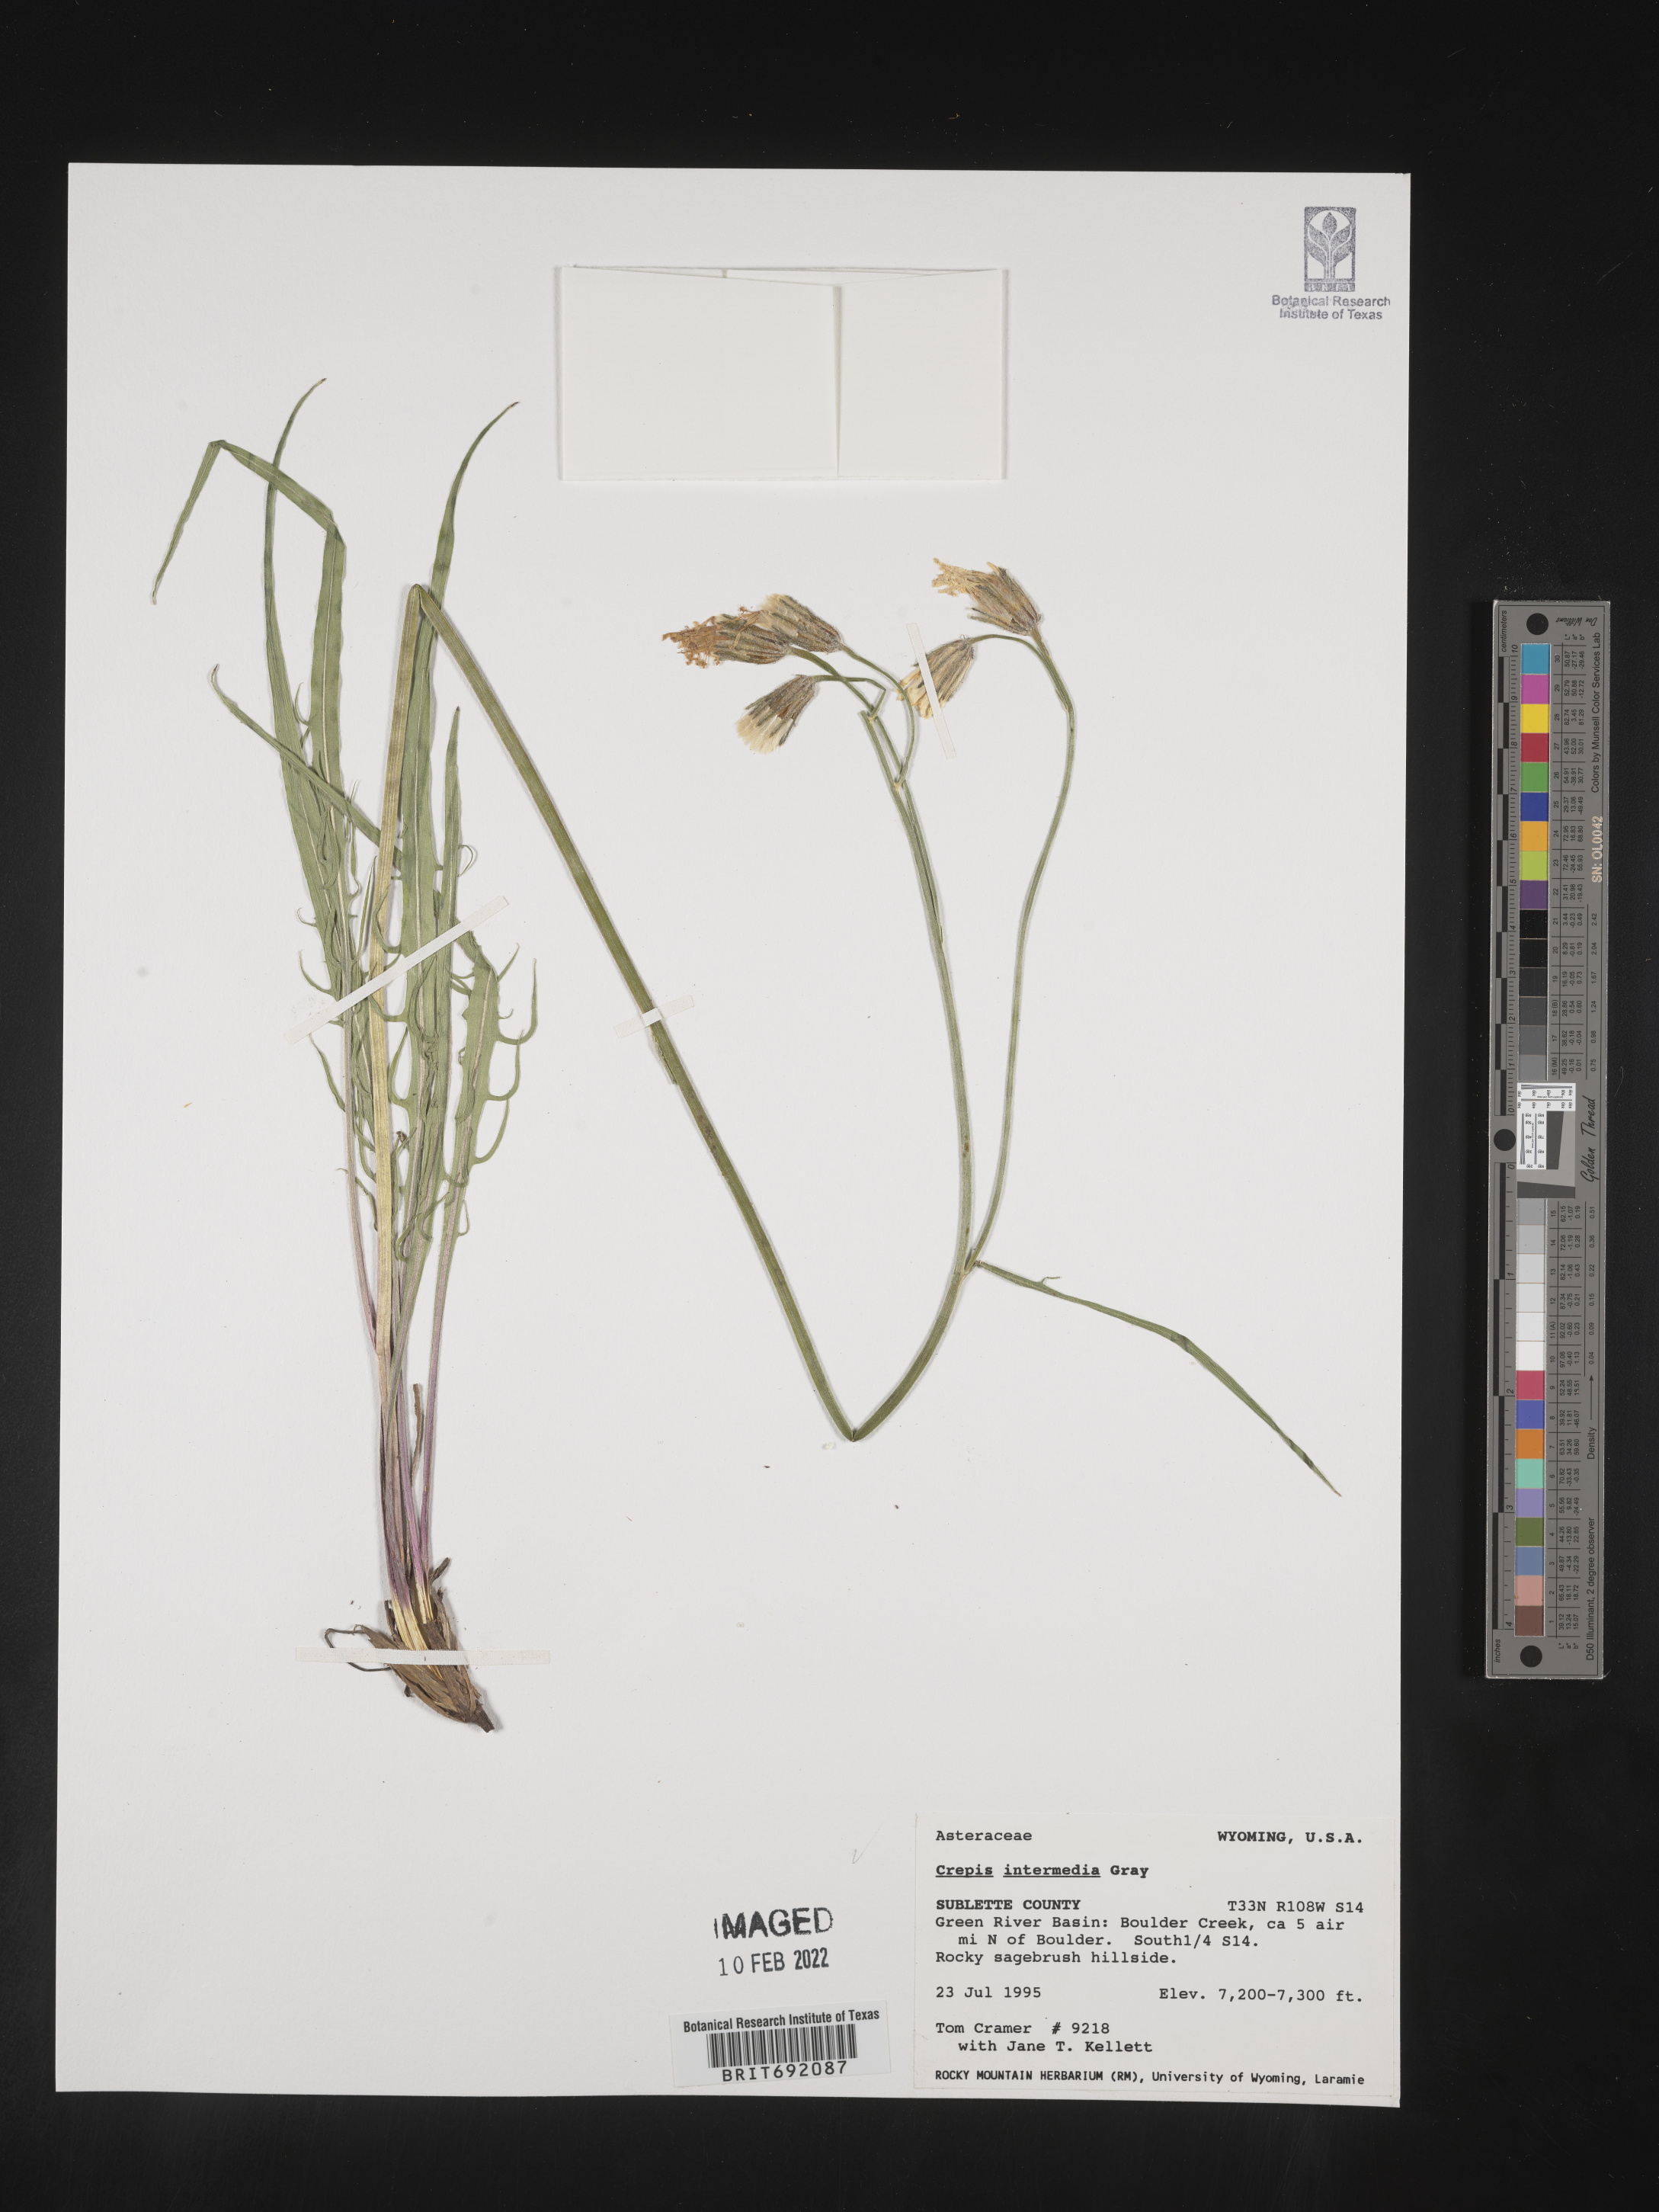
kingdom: Plantae
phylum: Tracheophyta
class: Magnoliopsida
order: Asterales
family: Asteraceae
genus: Crepis
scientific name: Crepis intermedia
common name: Limestone hawk's-beard
